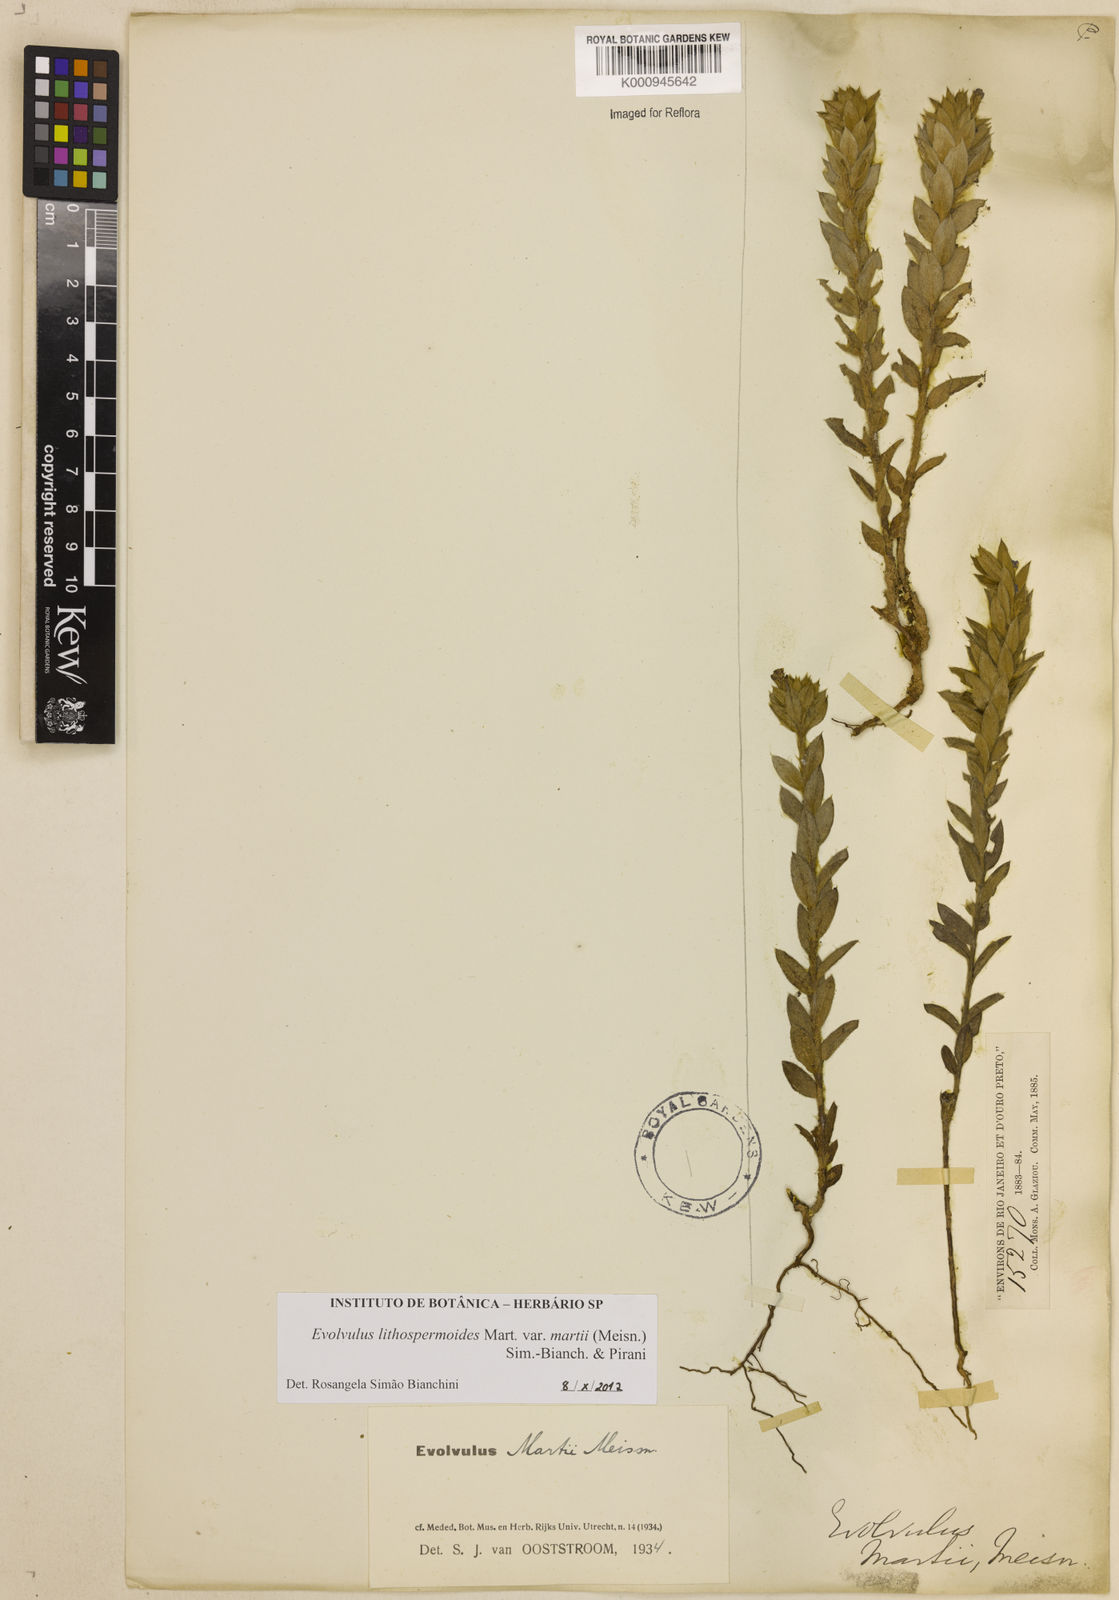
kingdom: Plantae
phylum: Tracheophyta
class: Magnoliopsida
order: Solanales
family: Convolvulaceae
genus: Evolvulus
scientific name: Evolvulus
